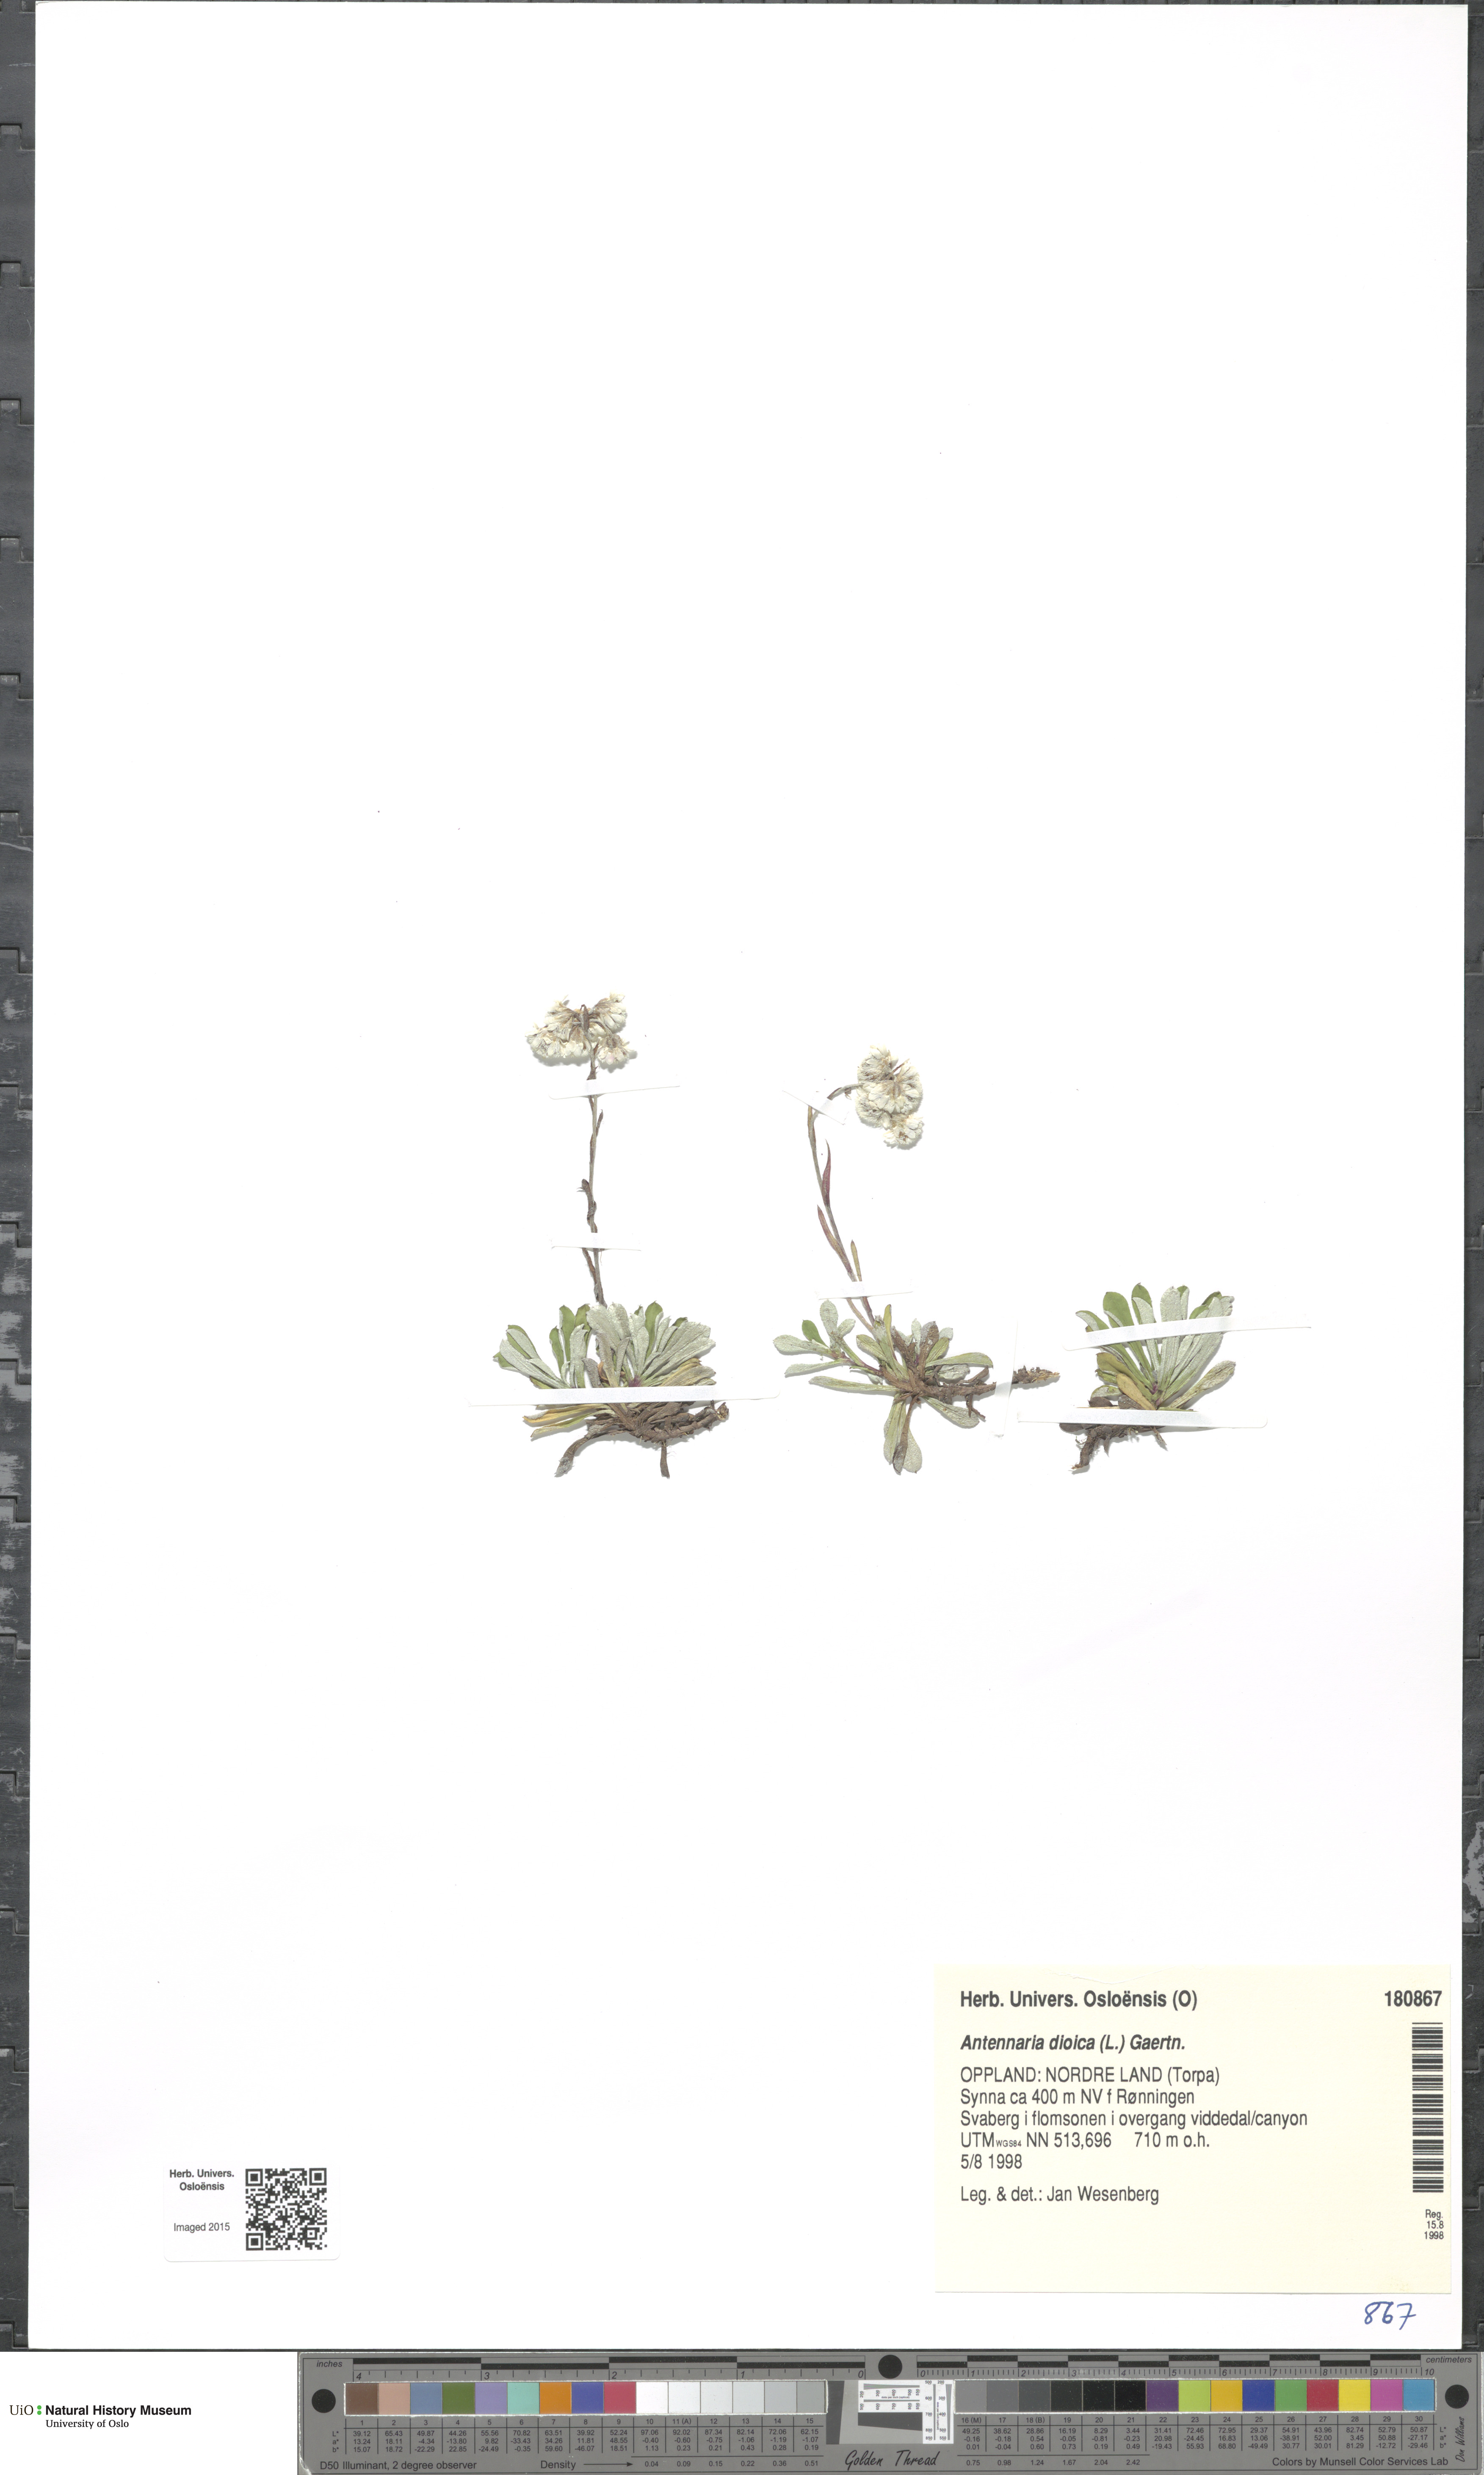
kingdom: Plantae
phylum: Tracheophyta
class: Magnoliopsida
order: Asterales
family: Asteraceae
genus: Antennaria
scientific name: Antennaria dioica
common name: Mountain everlasting
